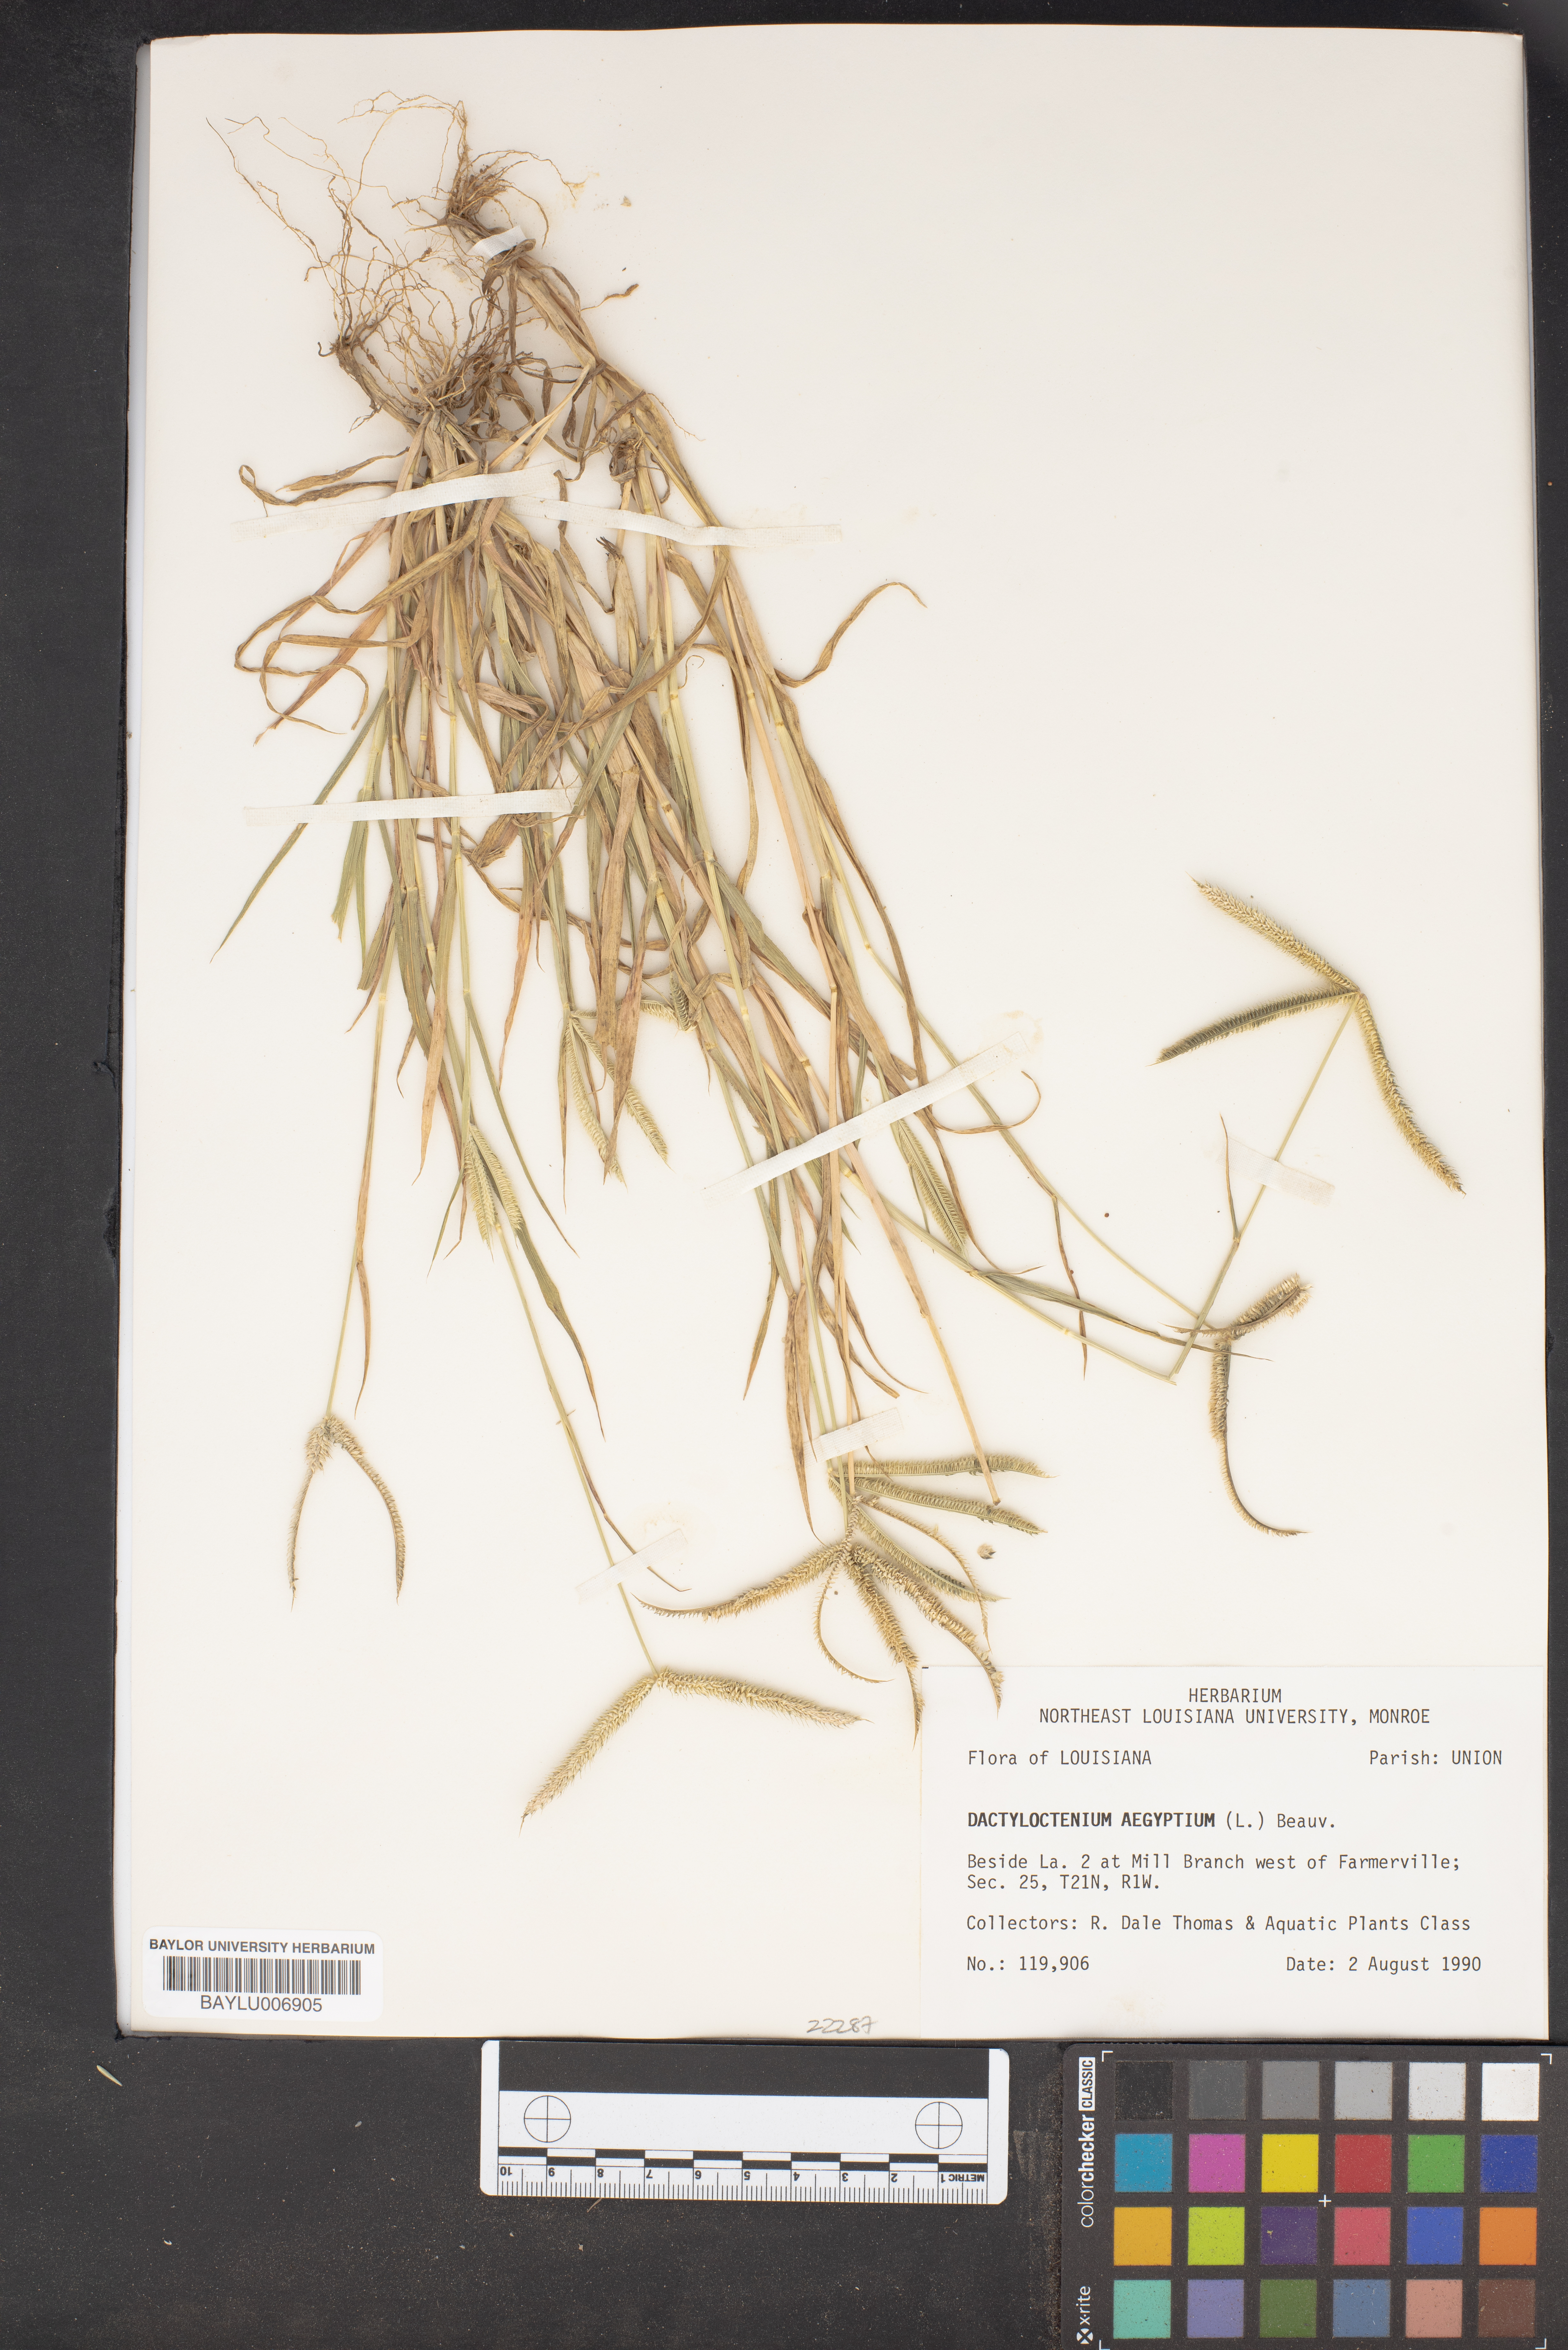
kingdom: Plantae
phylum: Tracheophyta
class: Liliopsida
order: Poales
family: Poaceae
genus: Dactyloctenium
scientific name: Dactyloctenium aegyptium
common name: Egyptian grass
